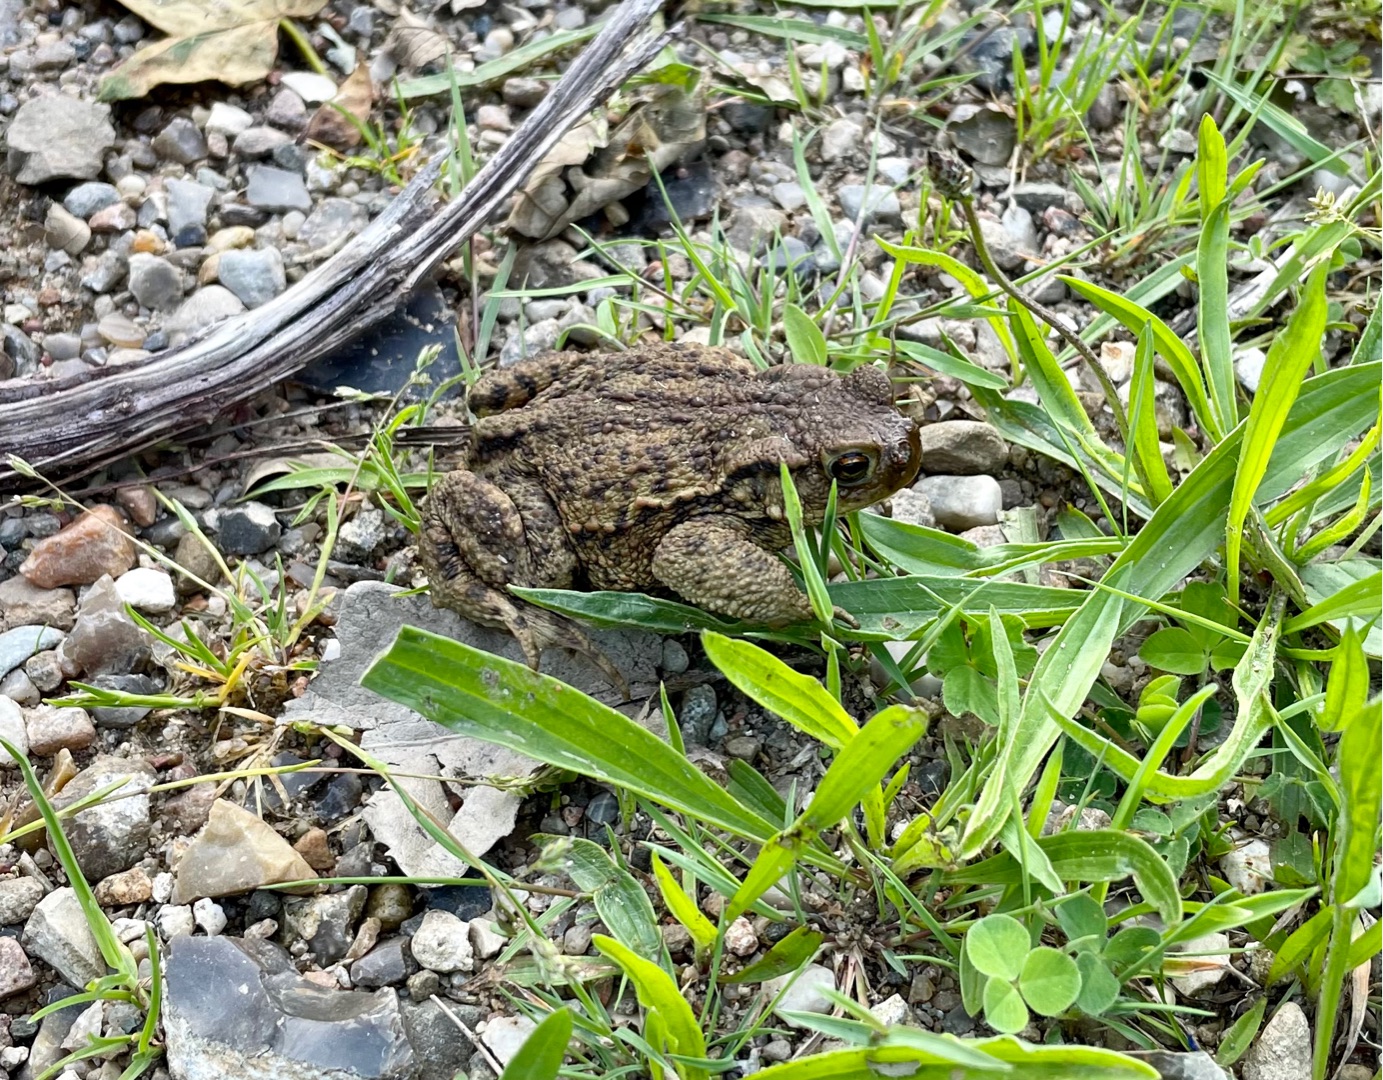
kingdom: Animalia
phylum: Chordata
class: Amphibia
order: Anura
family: Bufonidae
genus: Bufo
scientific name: Bufo bufo
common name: Skrubtudse
